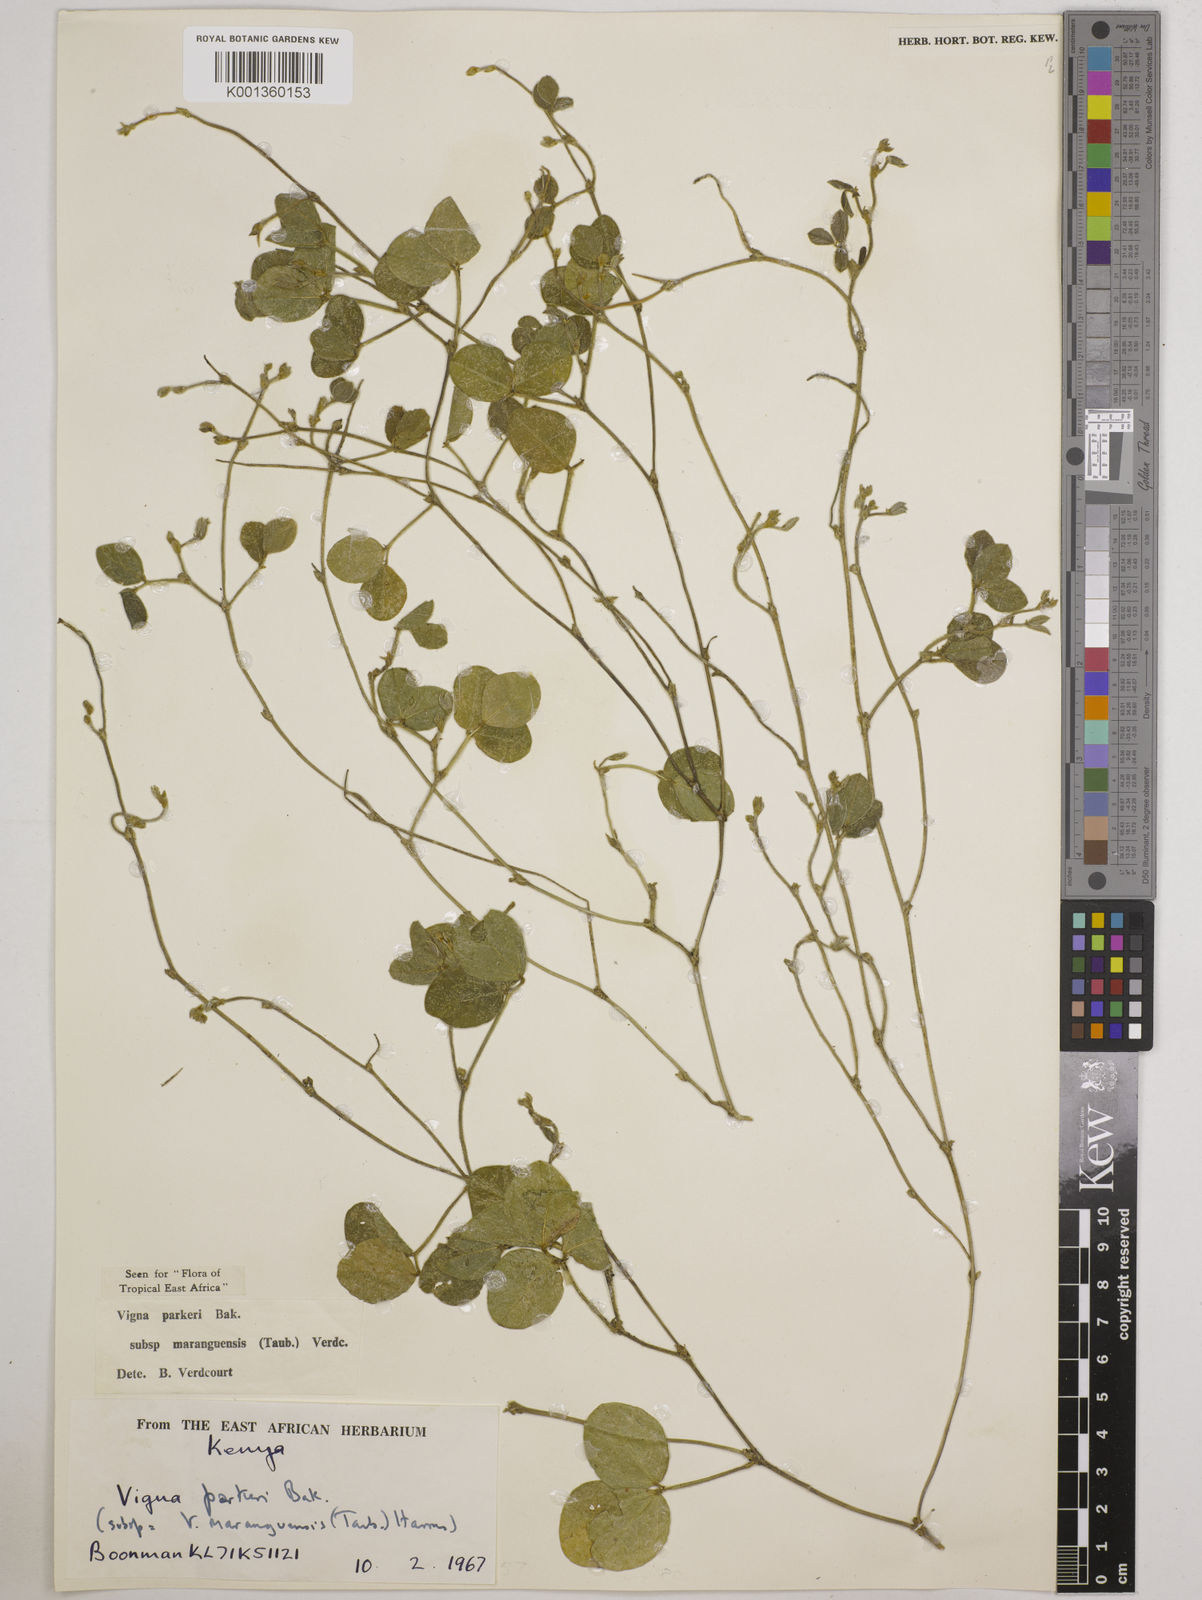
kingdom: Plantae
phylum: Tracheophyta
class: Magnoliopsida
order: Fabales
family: Fabaceae
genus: Vigna
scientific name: Vigna
